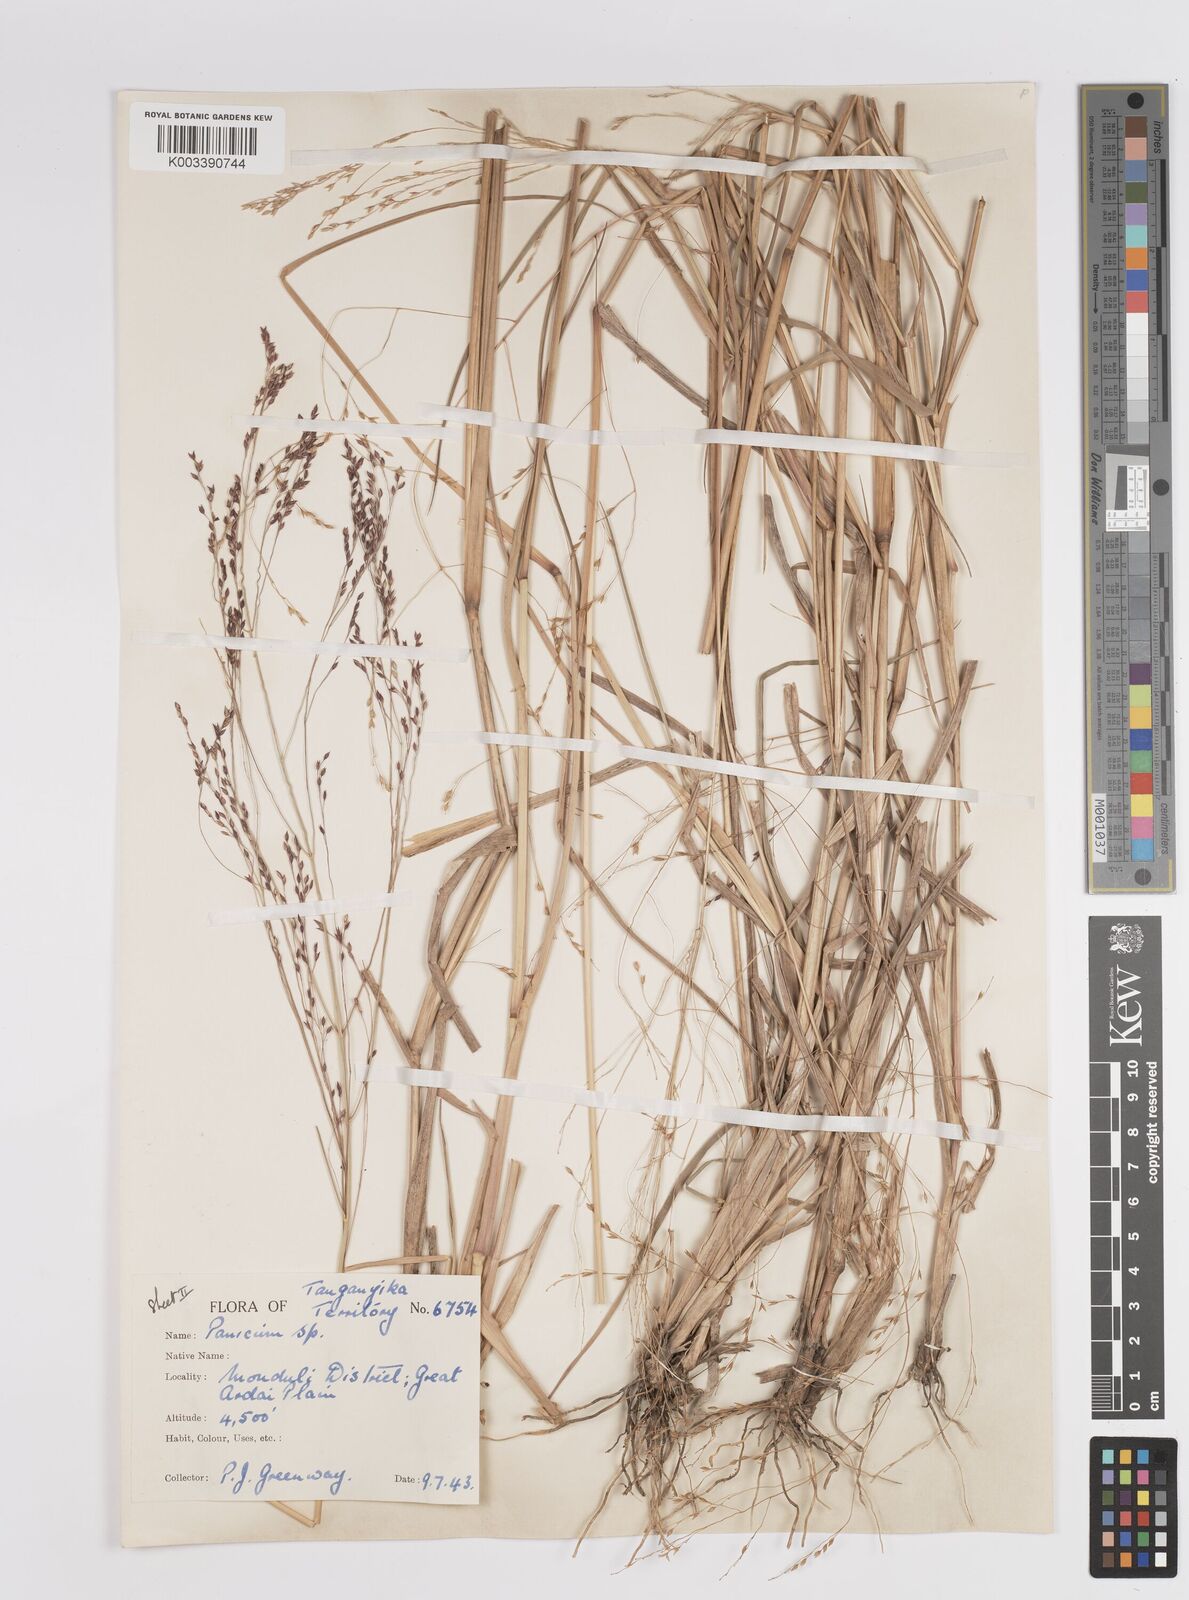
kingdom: Plantae
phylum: Tracheophyta
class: Liliopsida
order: Poales
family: Poaceae
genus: Panicum
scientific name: Panicum porphyrrhizos
